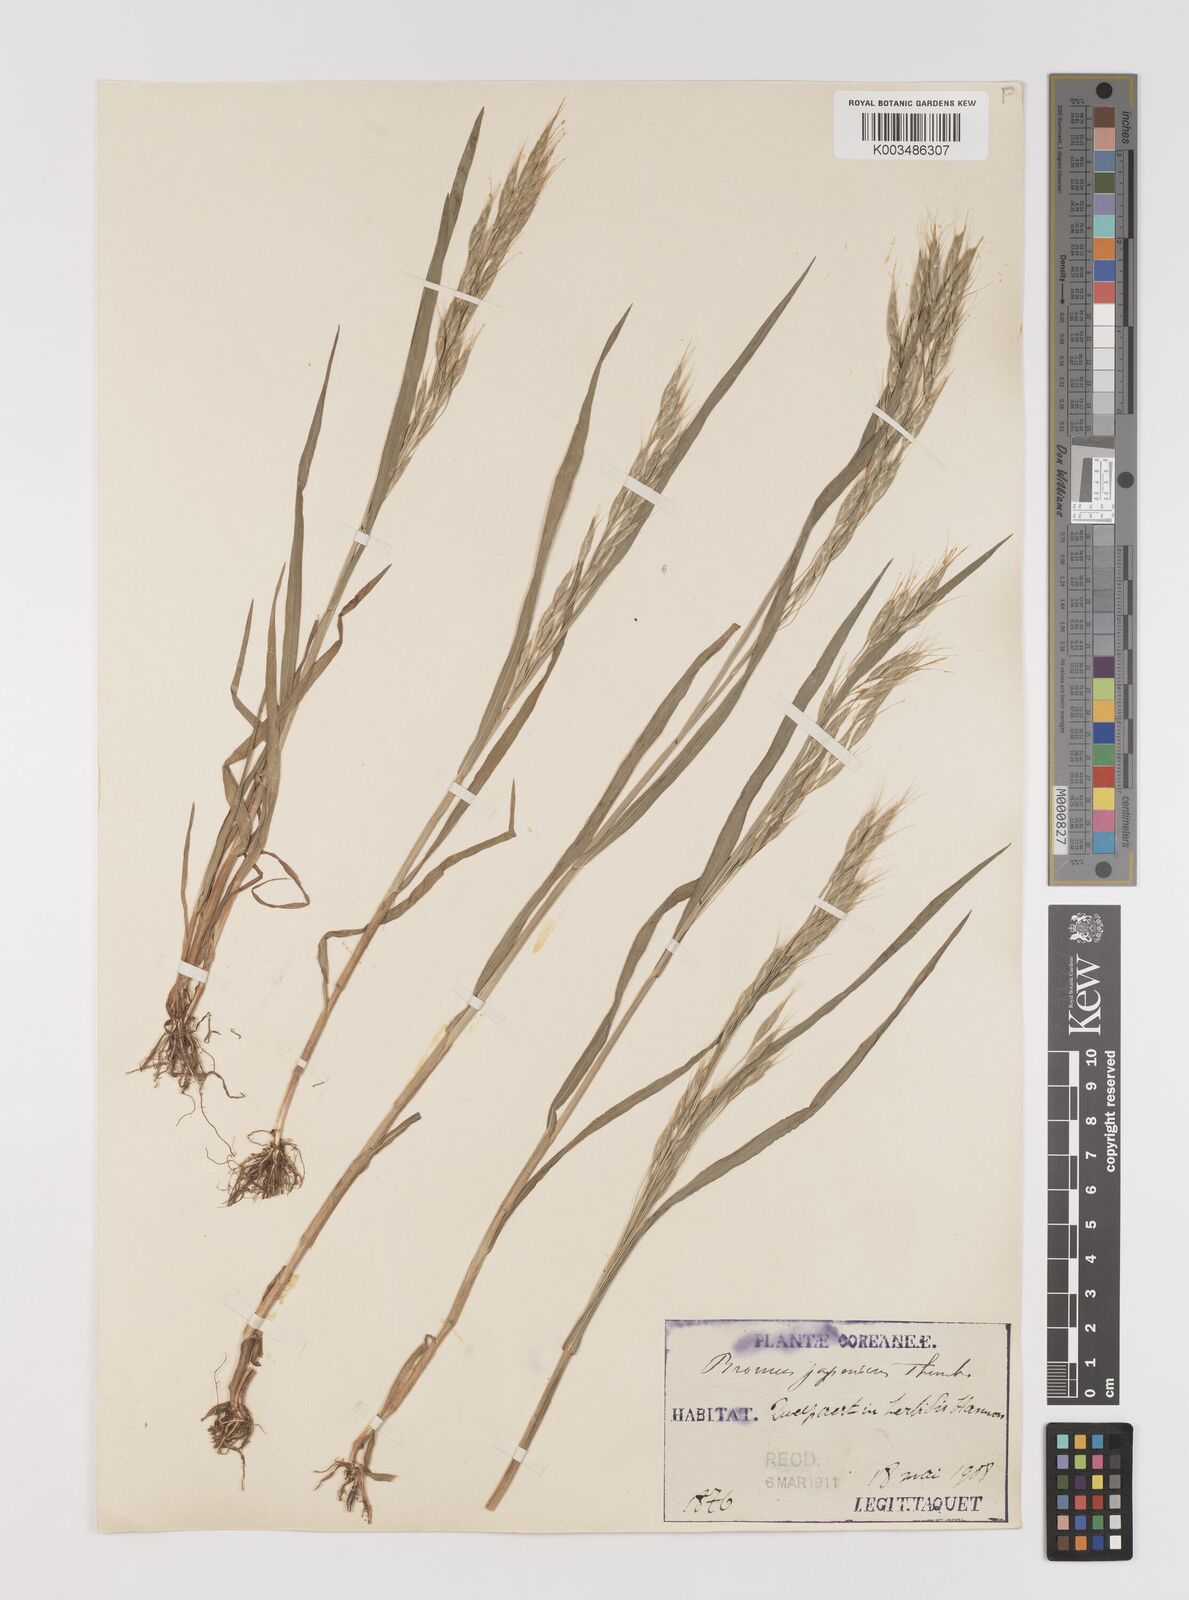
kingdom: Plantae
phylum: Tracheophyta
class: Liliopsida
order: Poales
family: Poaceae
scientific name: Poaceae
